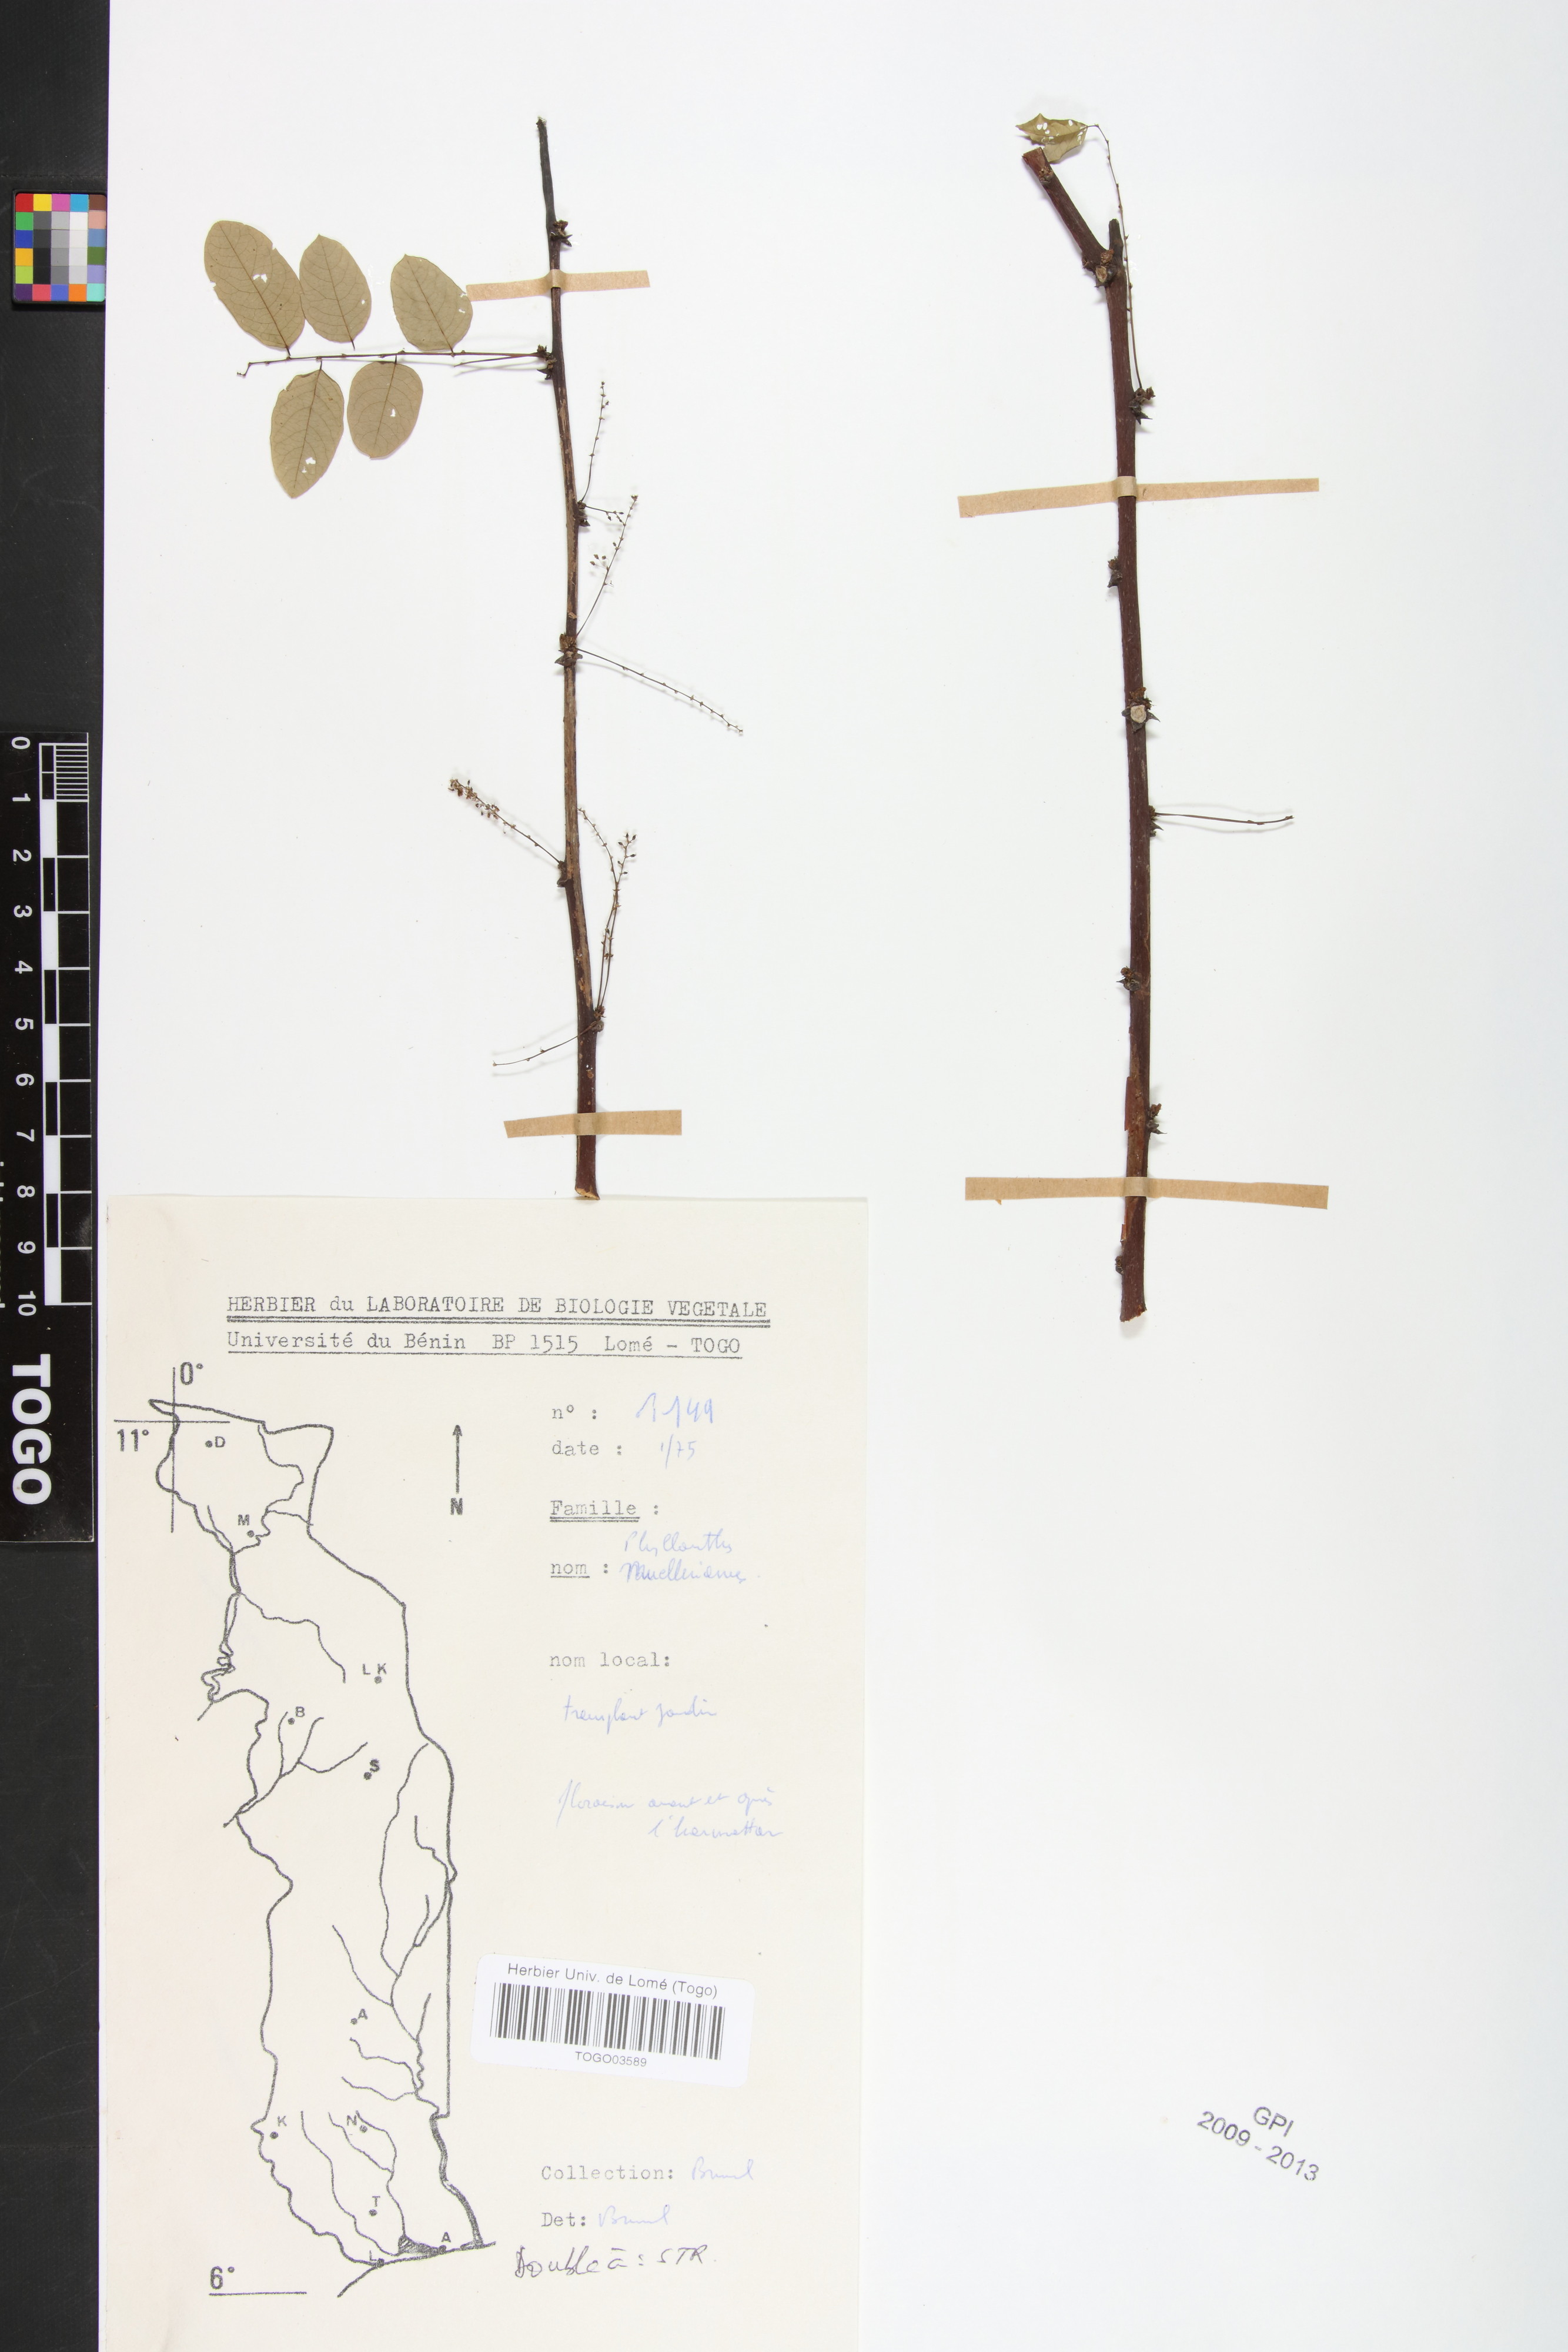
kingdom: Plantae
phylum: Tracheophyta
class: Magnoliopsida
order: Malpighiales
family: Phyllanthaceae
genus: Phyllanthus
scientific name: Phyllanthus muellerianus
